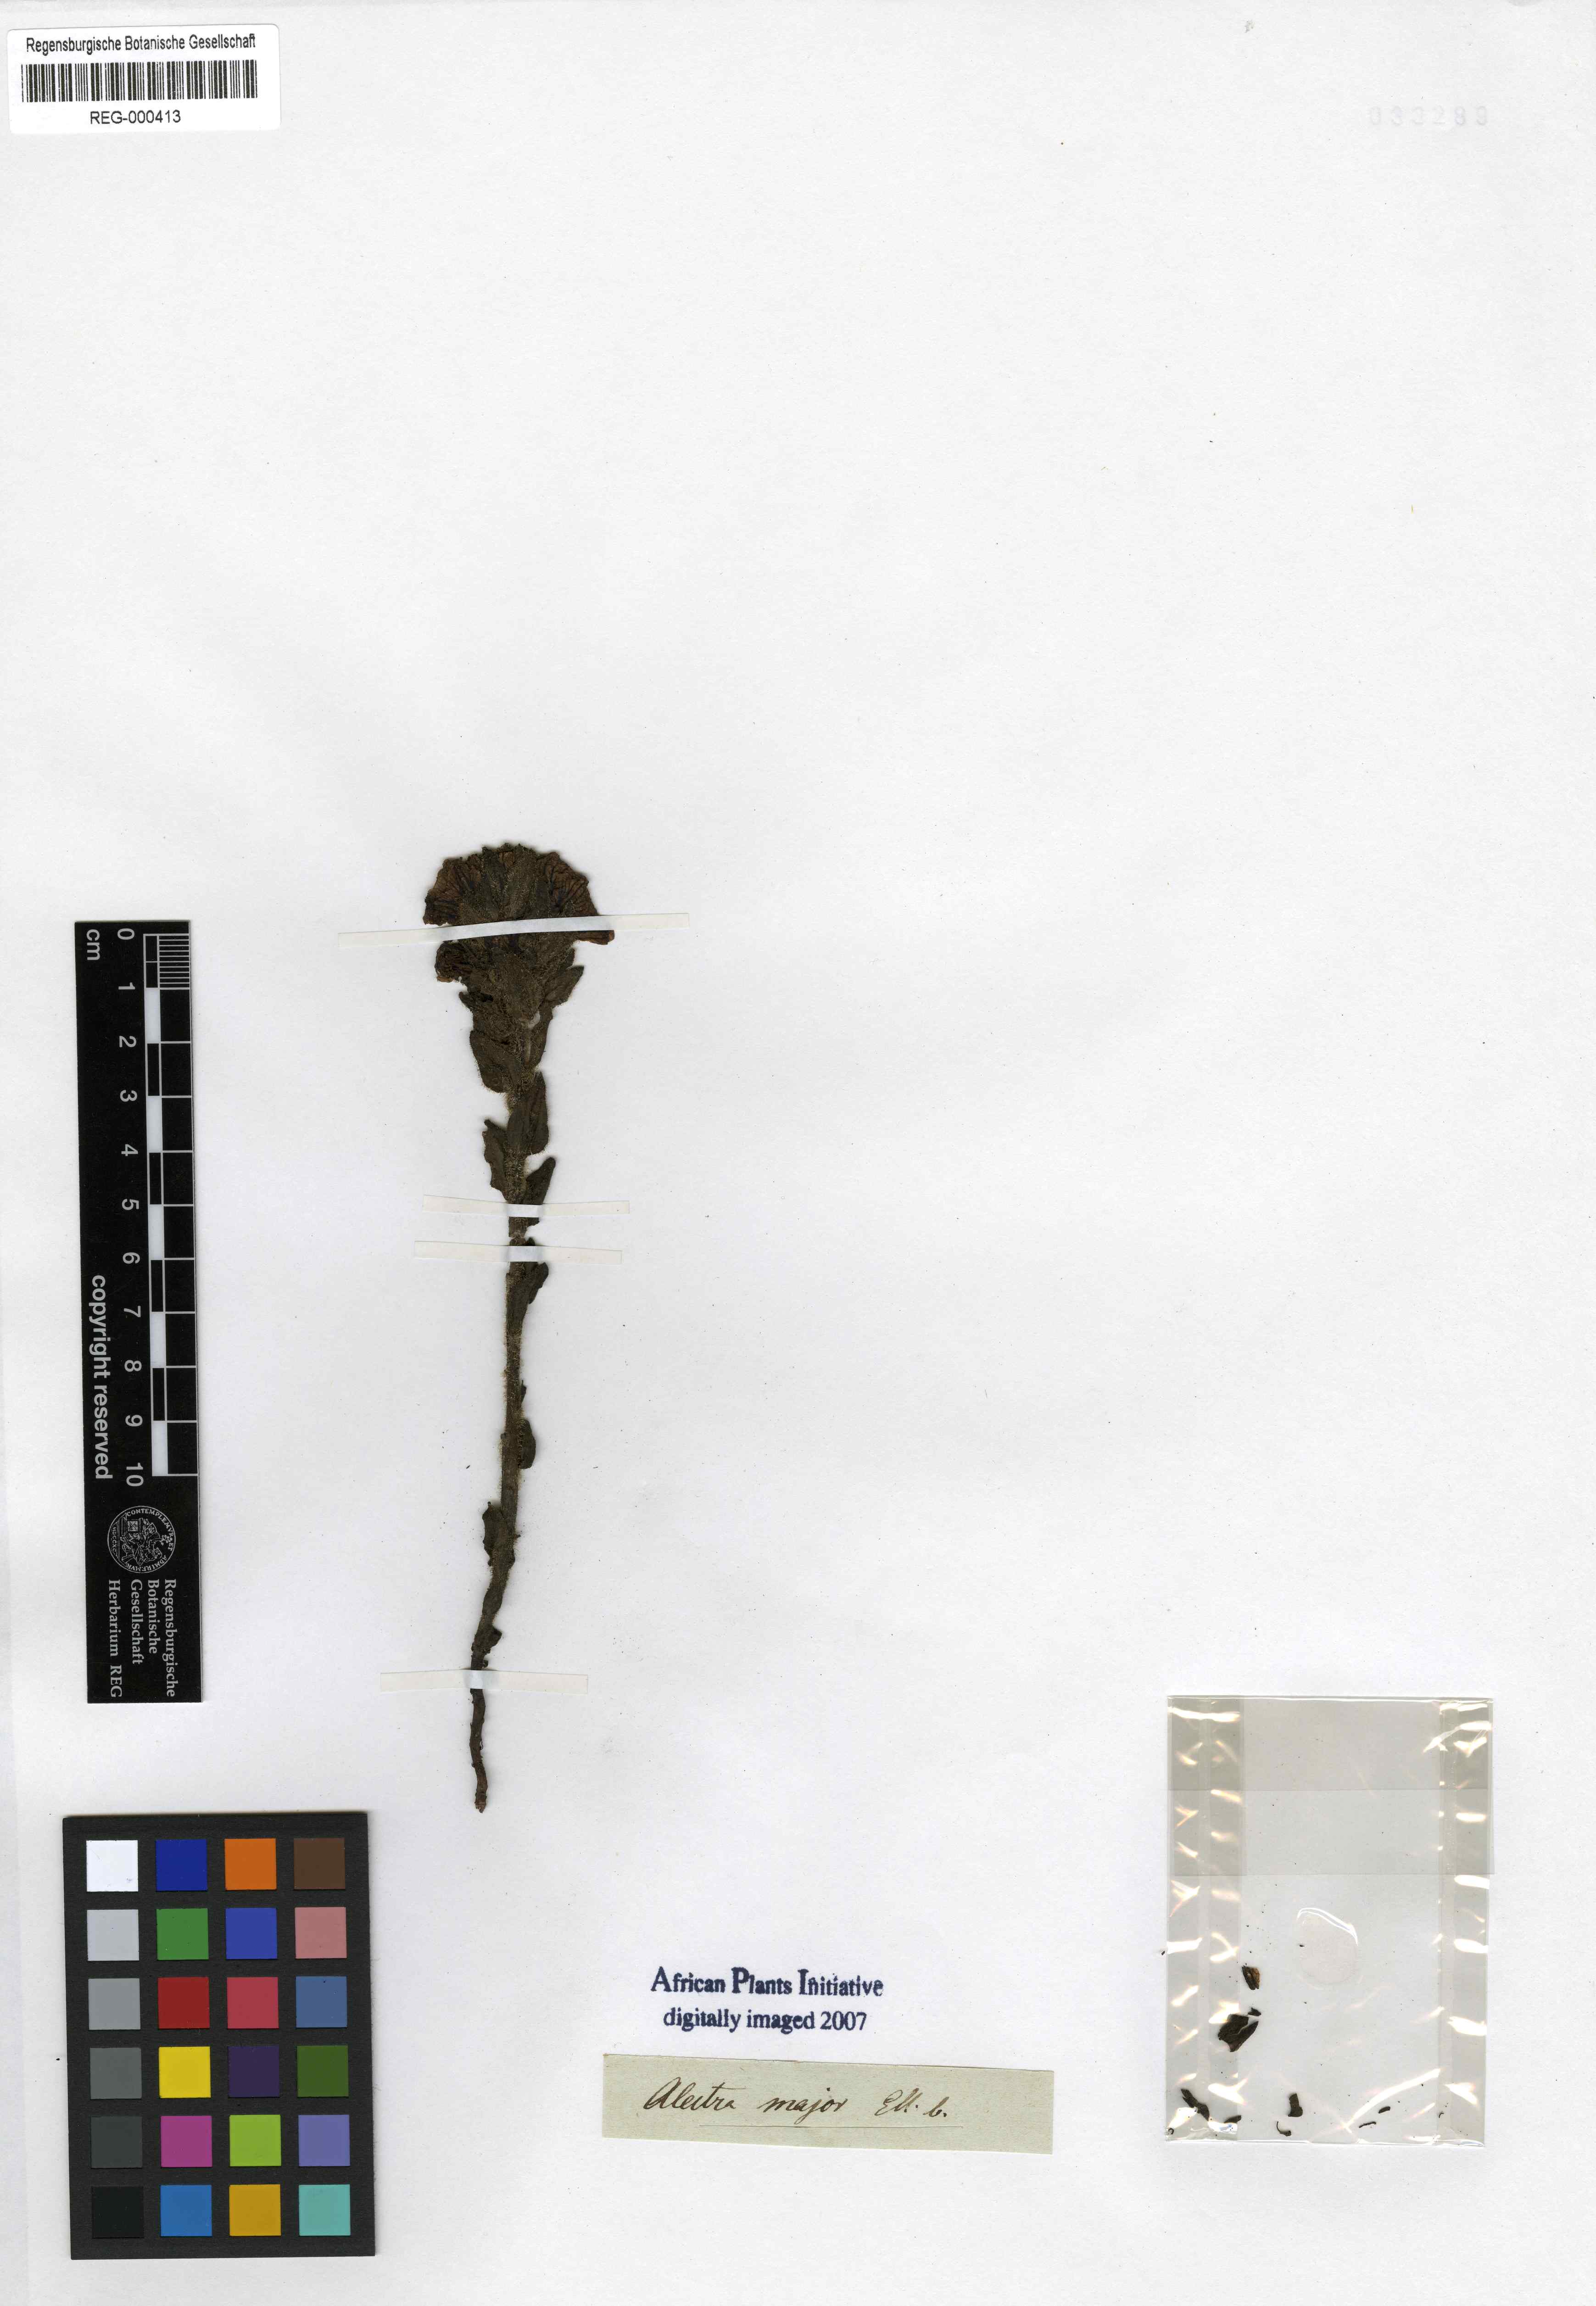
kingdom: Plantae
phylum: Tracheophyta
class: Magnoliopsida
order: Lamiales
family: Orobanchaceae
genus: Alectra
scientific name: Alectra capensis
